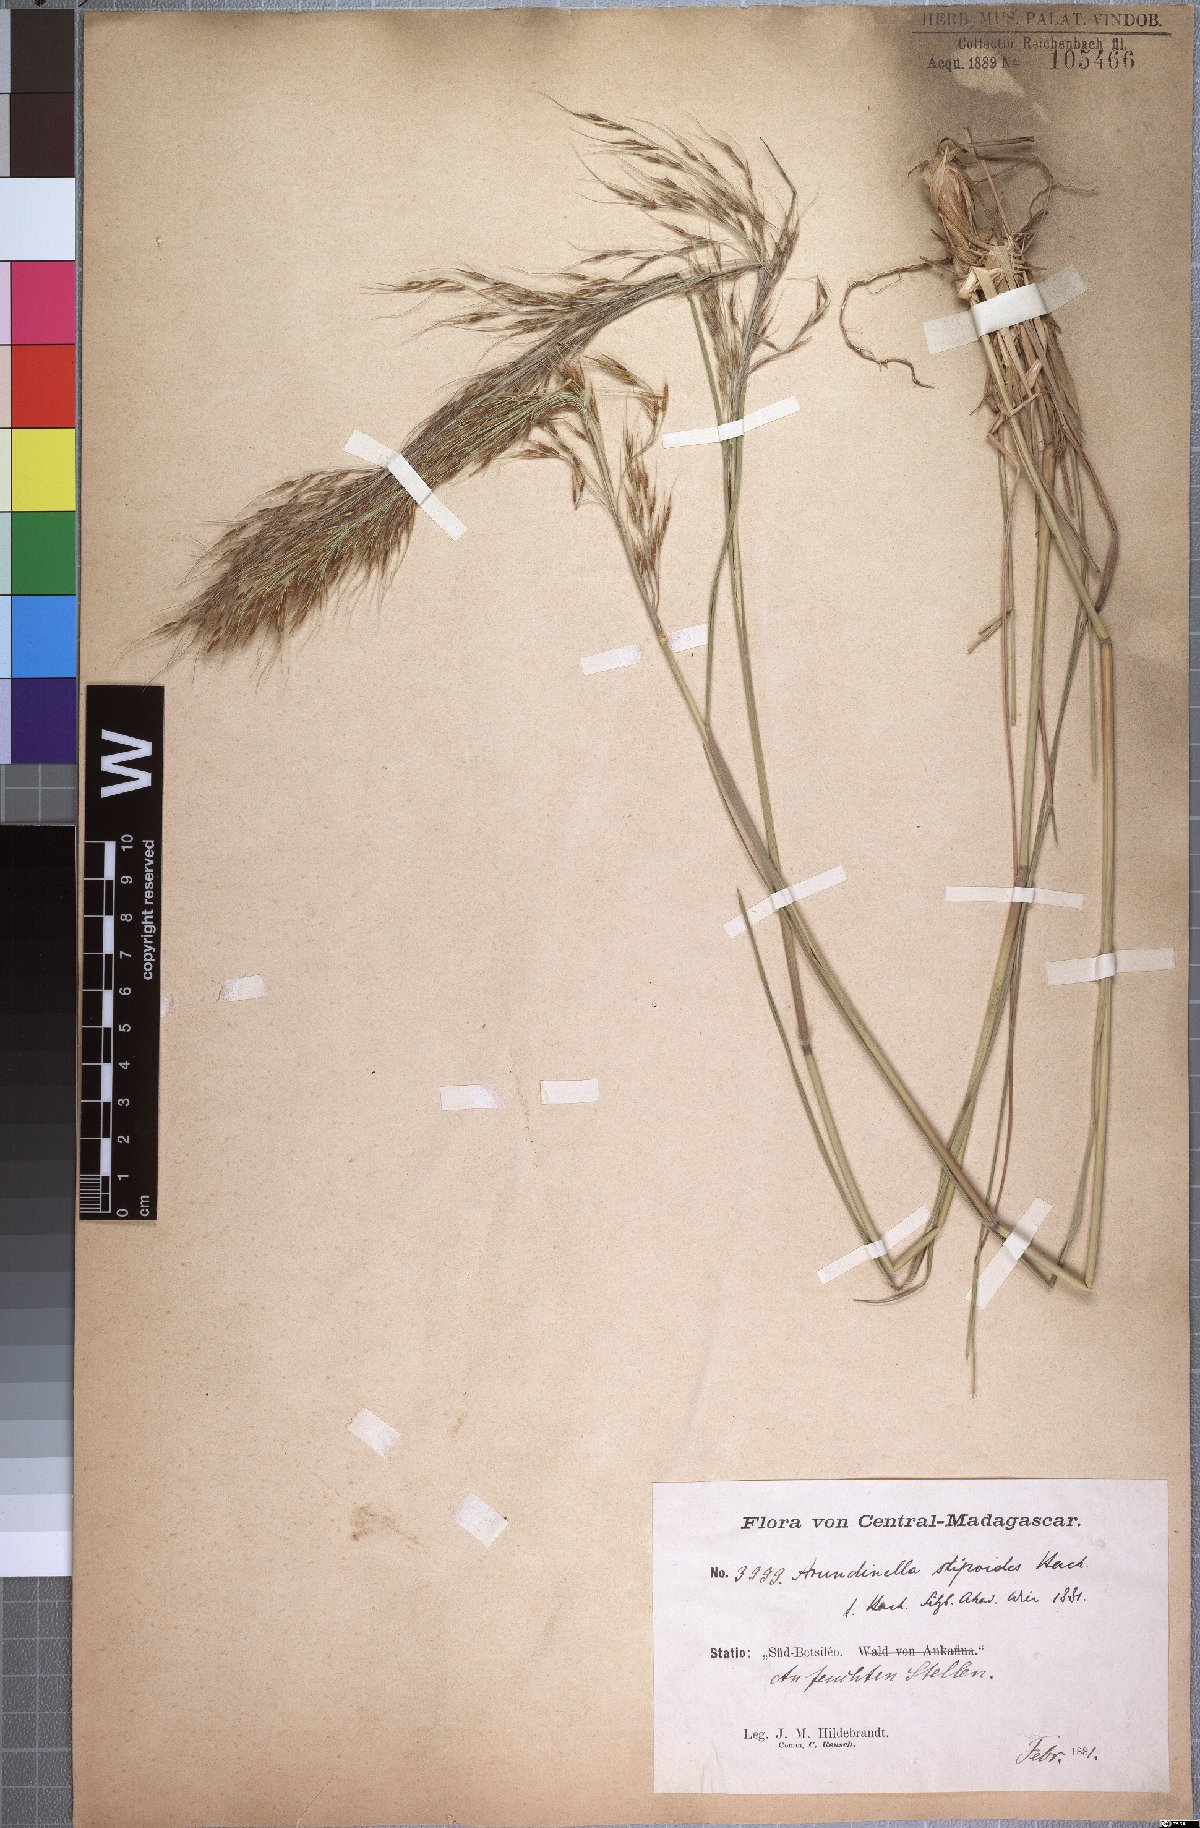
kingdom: Plantae
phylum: Tracheophyta
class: Liliopsida
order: Poales
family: Poaceae
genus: Loudetia
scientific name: Loudetia simplex
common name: Common russet grass
